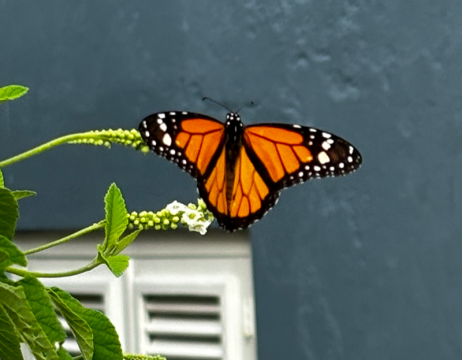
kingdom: Animalia
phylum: Arthropoda
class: Insecta
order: Lepidoptera
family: Nymphalidae
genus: Danaus
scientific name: Danaus plexippus
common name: Monarch
